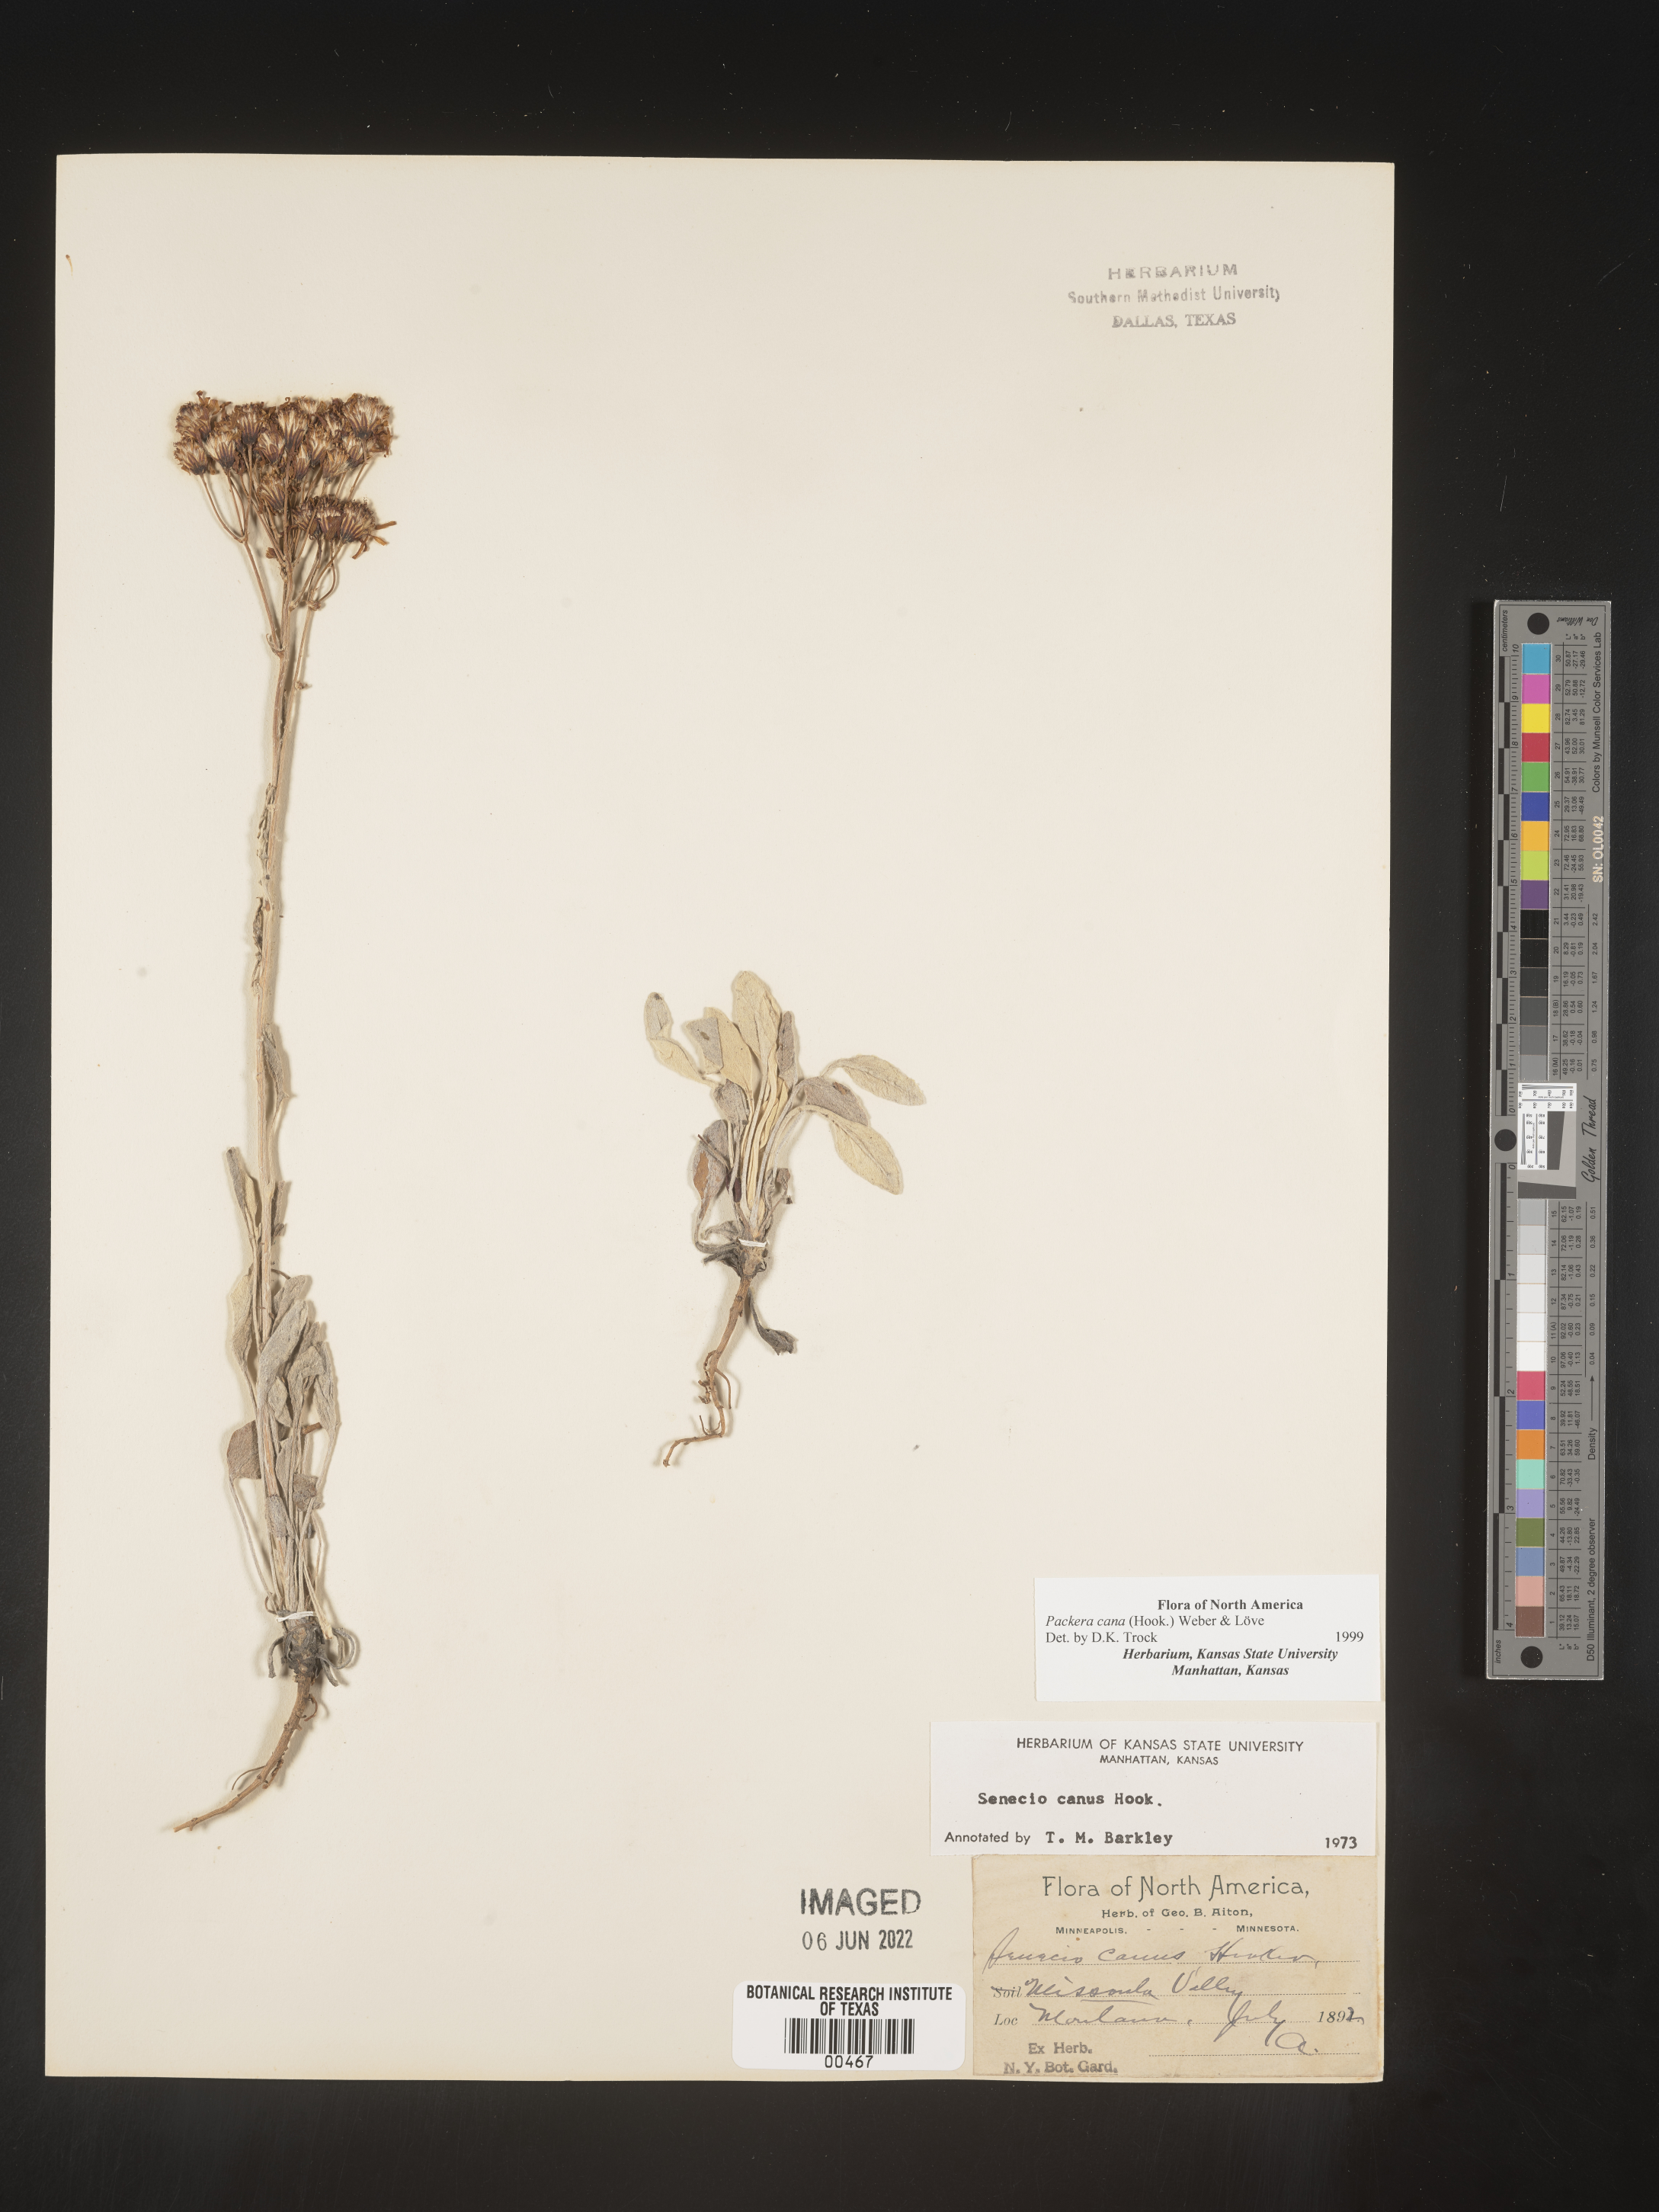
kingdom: Plantae
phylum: Tracheophyta
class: Magnoliopsida
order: Asterales
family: Asteraceae
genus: Packera
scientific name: Packera cana
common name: Woolly groundsel
